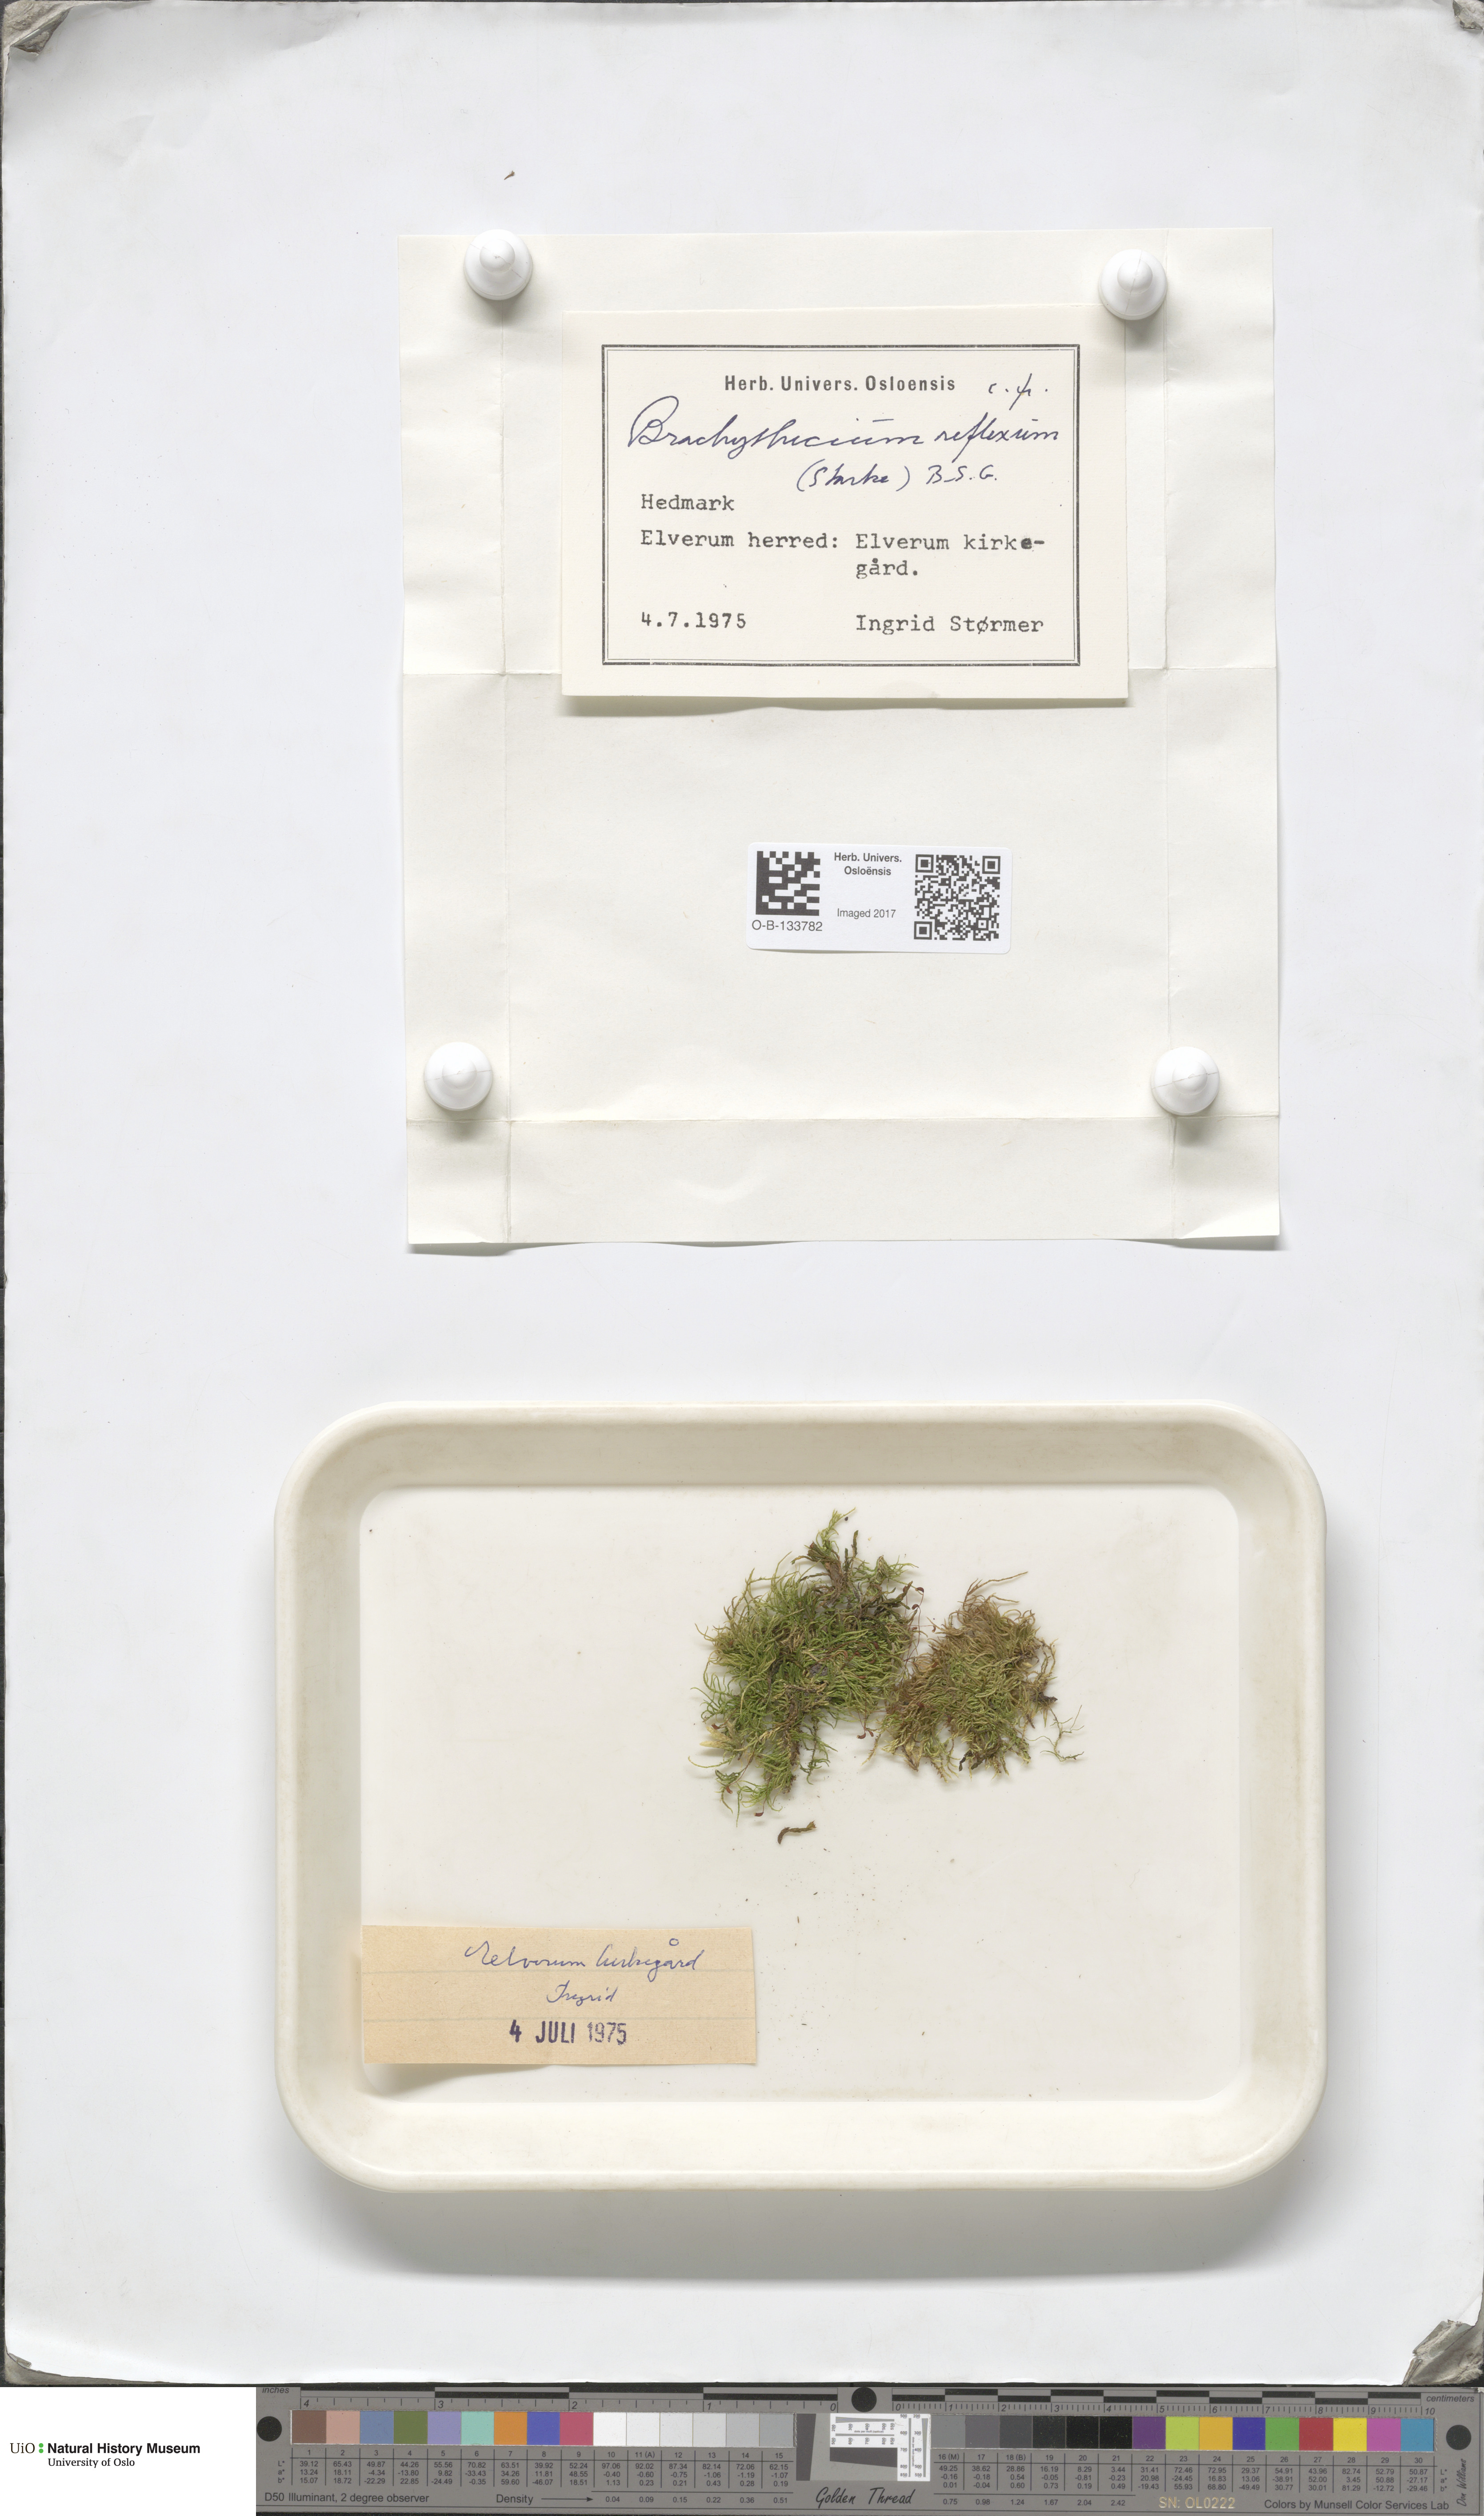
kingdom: Plantae
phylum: Bryophyta
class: Bryopsida
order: Hypnales
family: Brachytheciaceae
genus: Sciuro-hypnum
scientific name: Sciuro-hypnum reflexum
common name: Reflexed feather-moss
